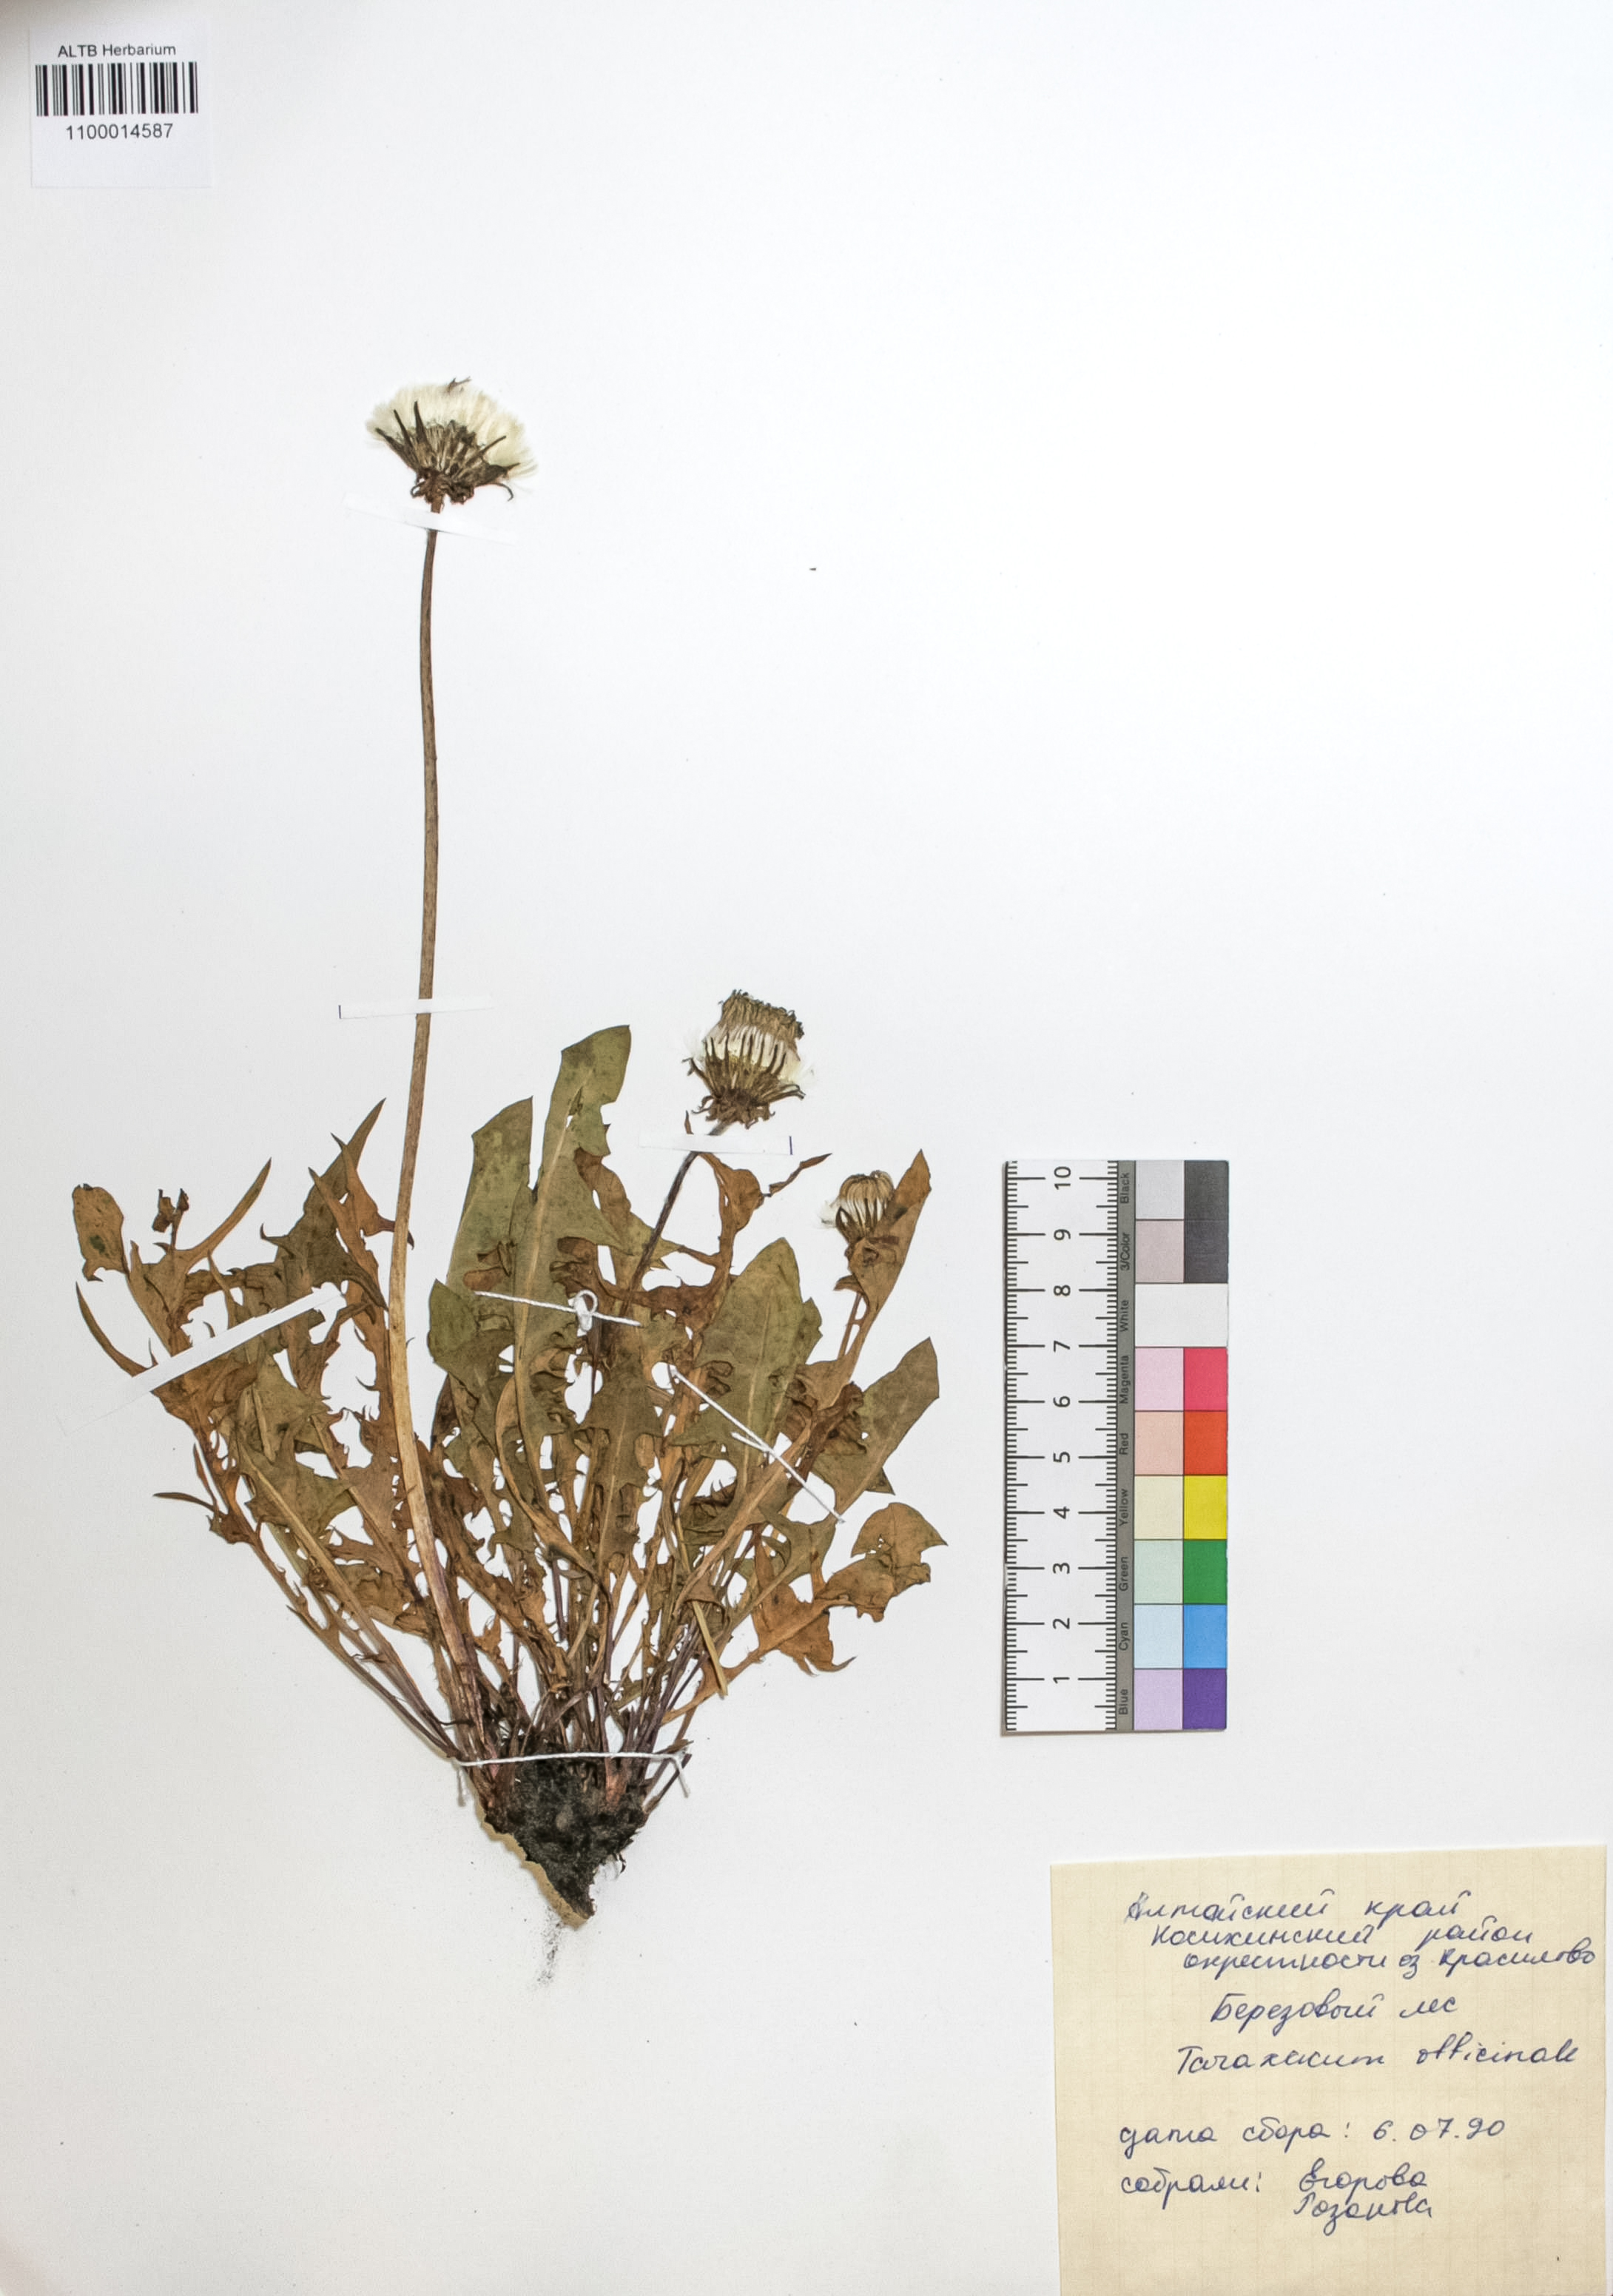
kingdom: Plantae
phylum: Tracheophyta
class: Magnoliopsida
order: Asterales
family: Asteraceae
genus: Taraxacum
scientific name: Taraxacum officinale
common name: Common dandelion
